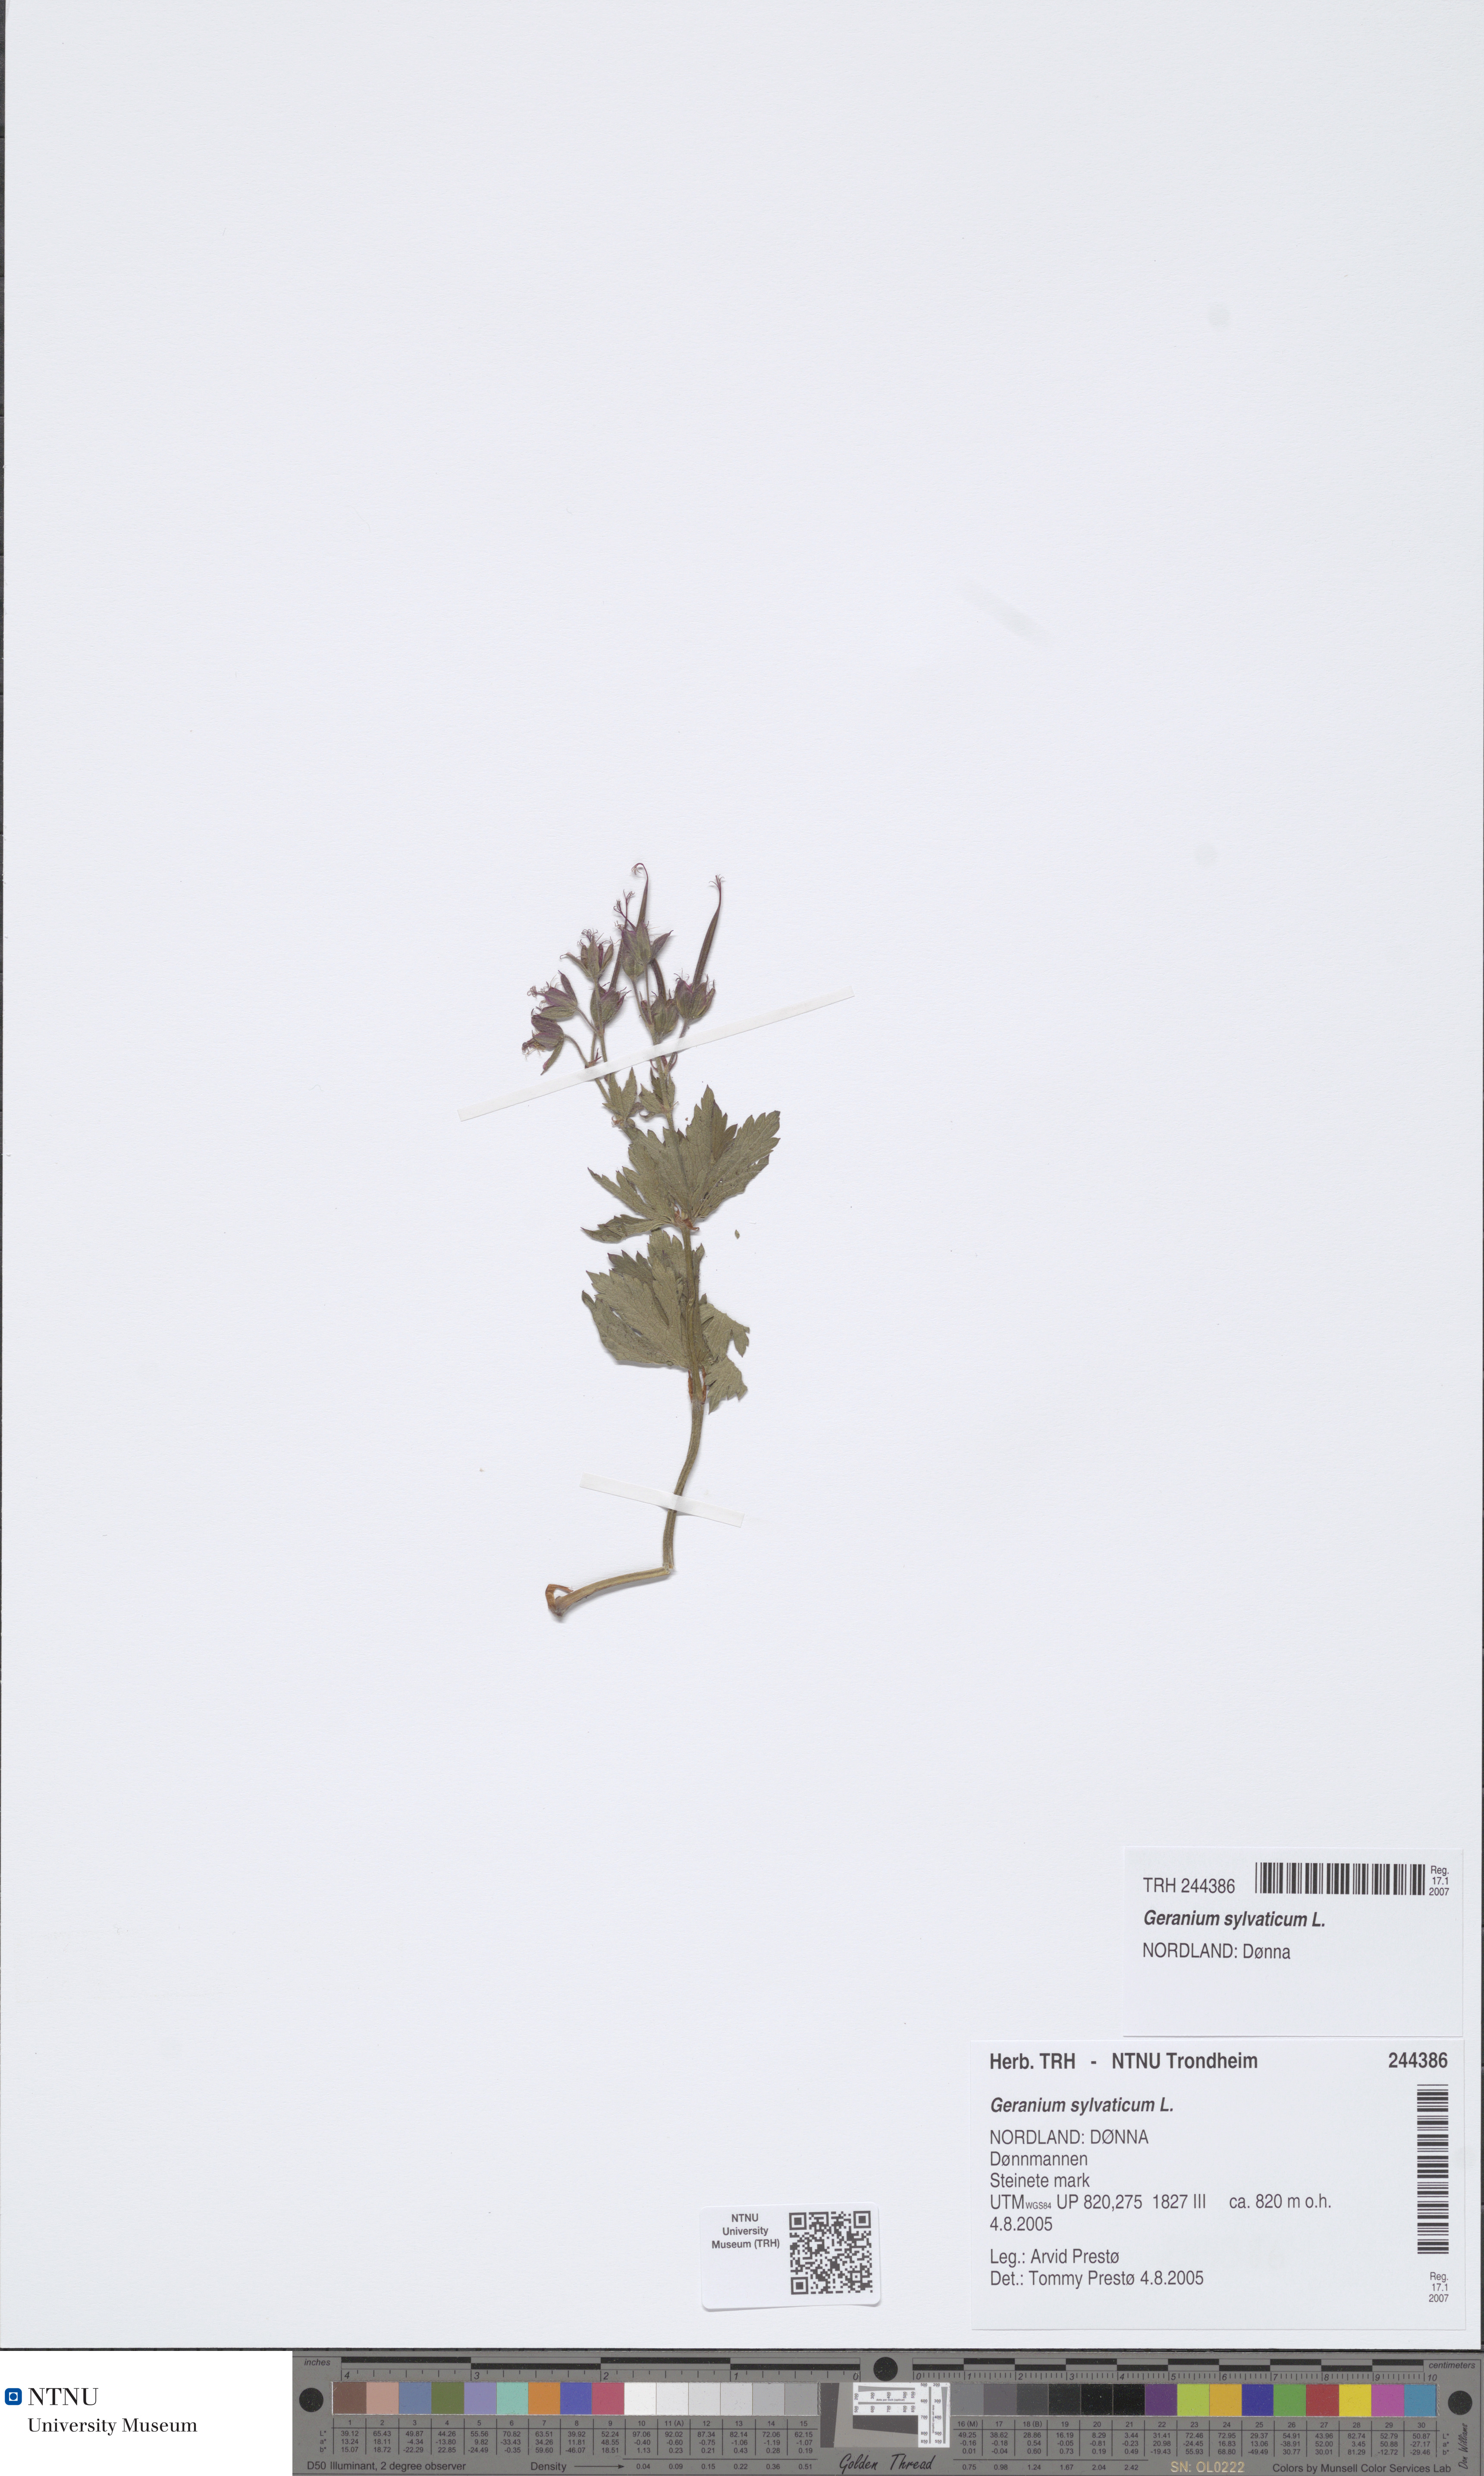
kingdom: Plantae
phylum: Tracheophyta
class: Magnoliopsida
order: Geraniales
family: Geraniaceae
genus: Geranium
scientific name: Geranium sylvaticum
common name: Wood crane's-bill
